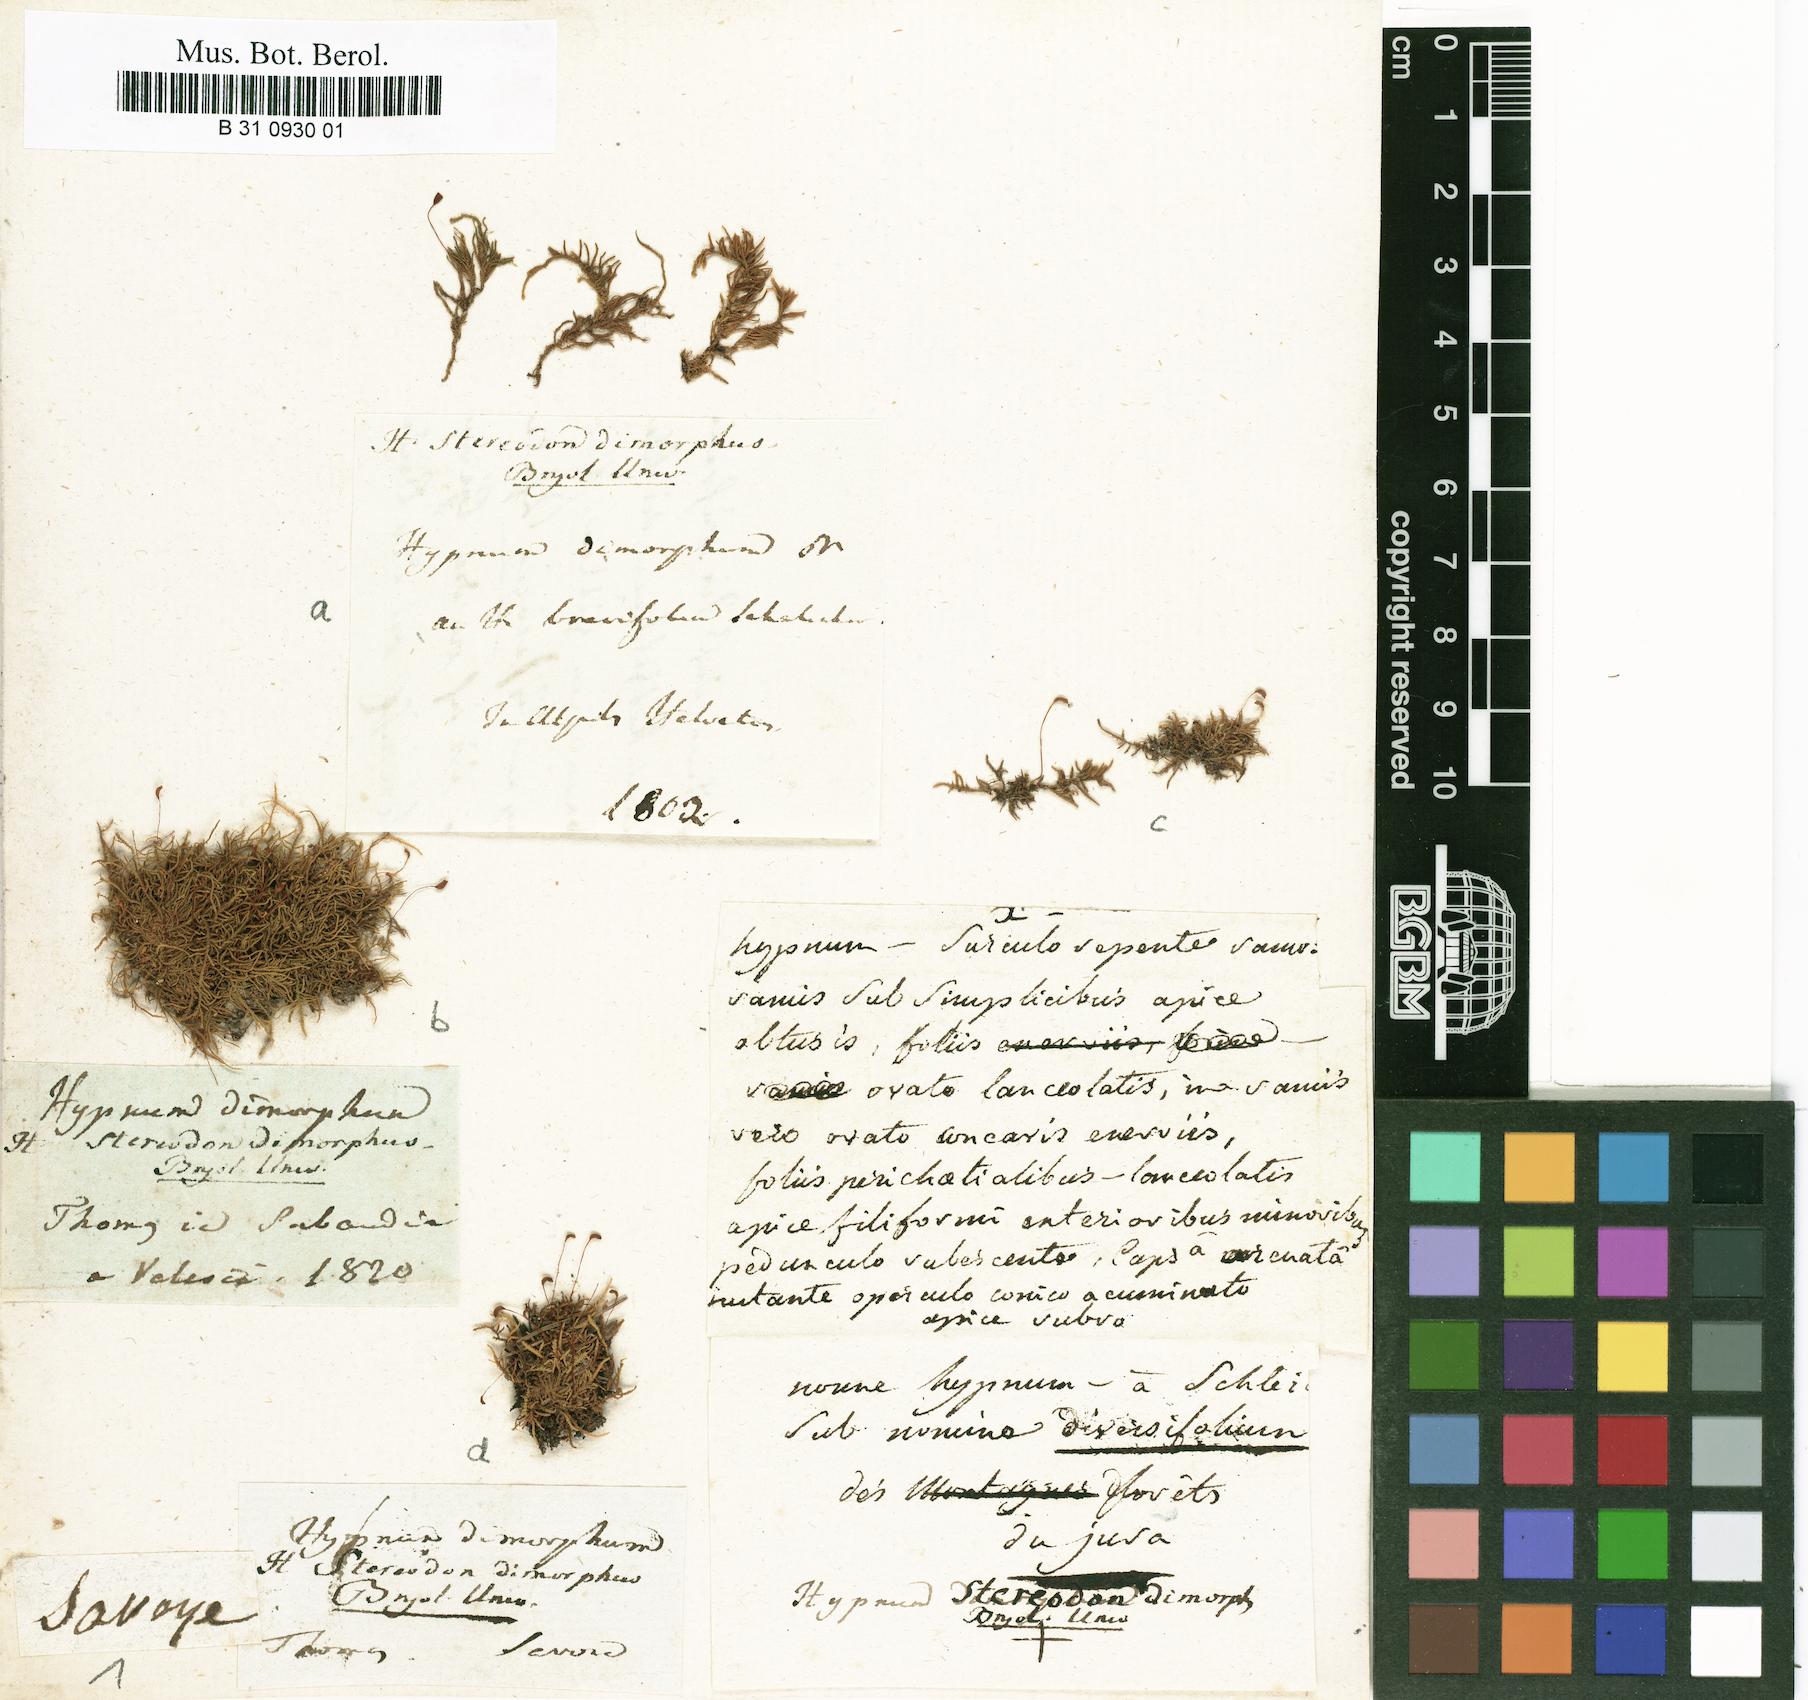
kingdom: Plantae
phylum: Bryophyta
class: Bryopsida
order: Hypnales
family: Heterocladiellaceae
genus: Heterocladiella
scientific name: Heterocladiella dimorpha
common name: Dimorphous tamarisk-moss
